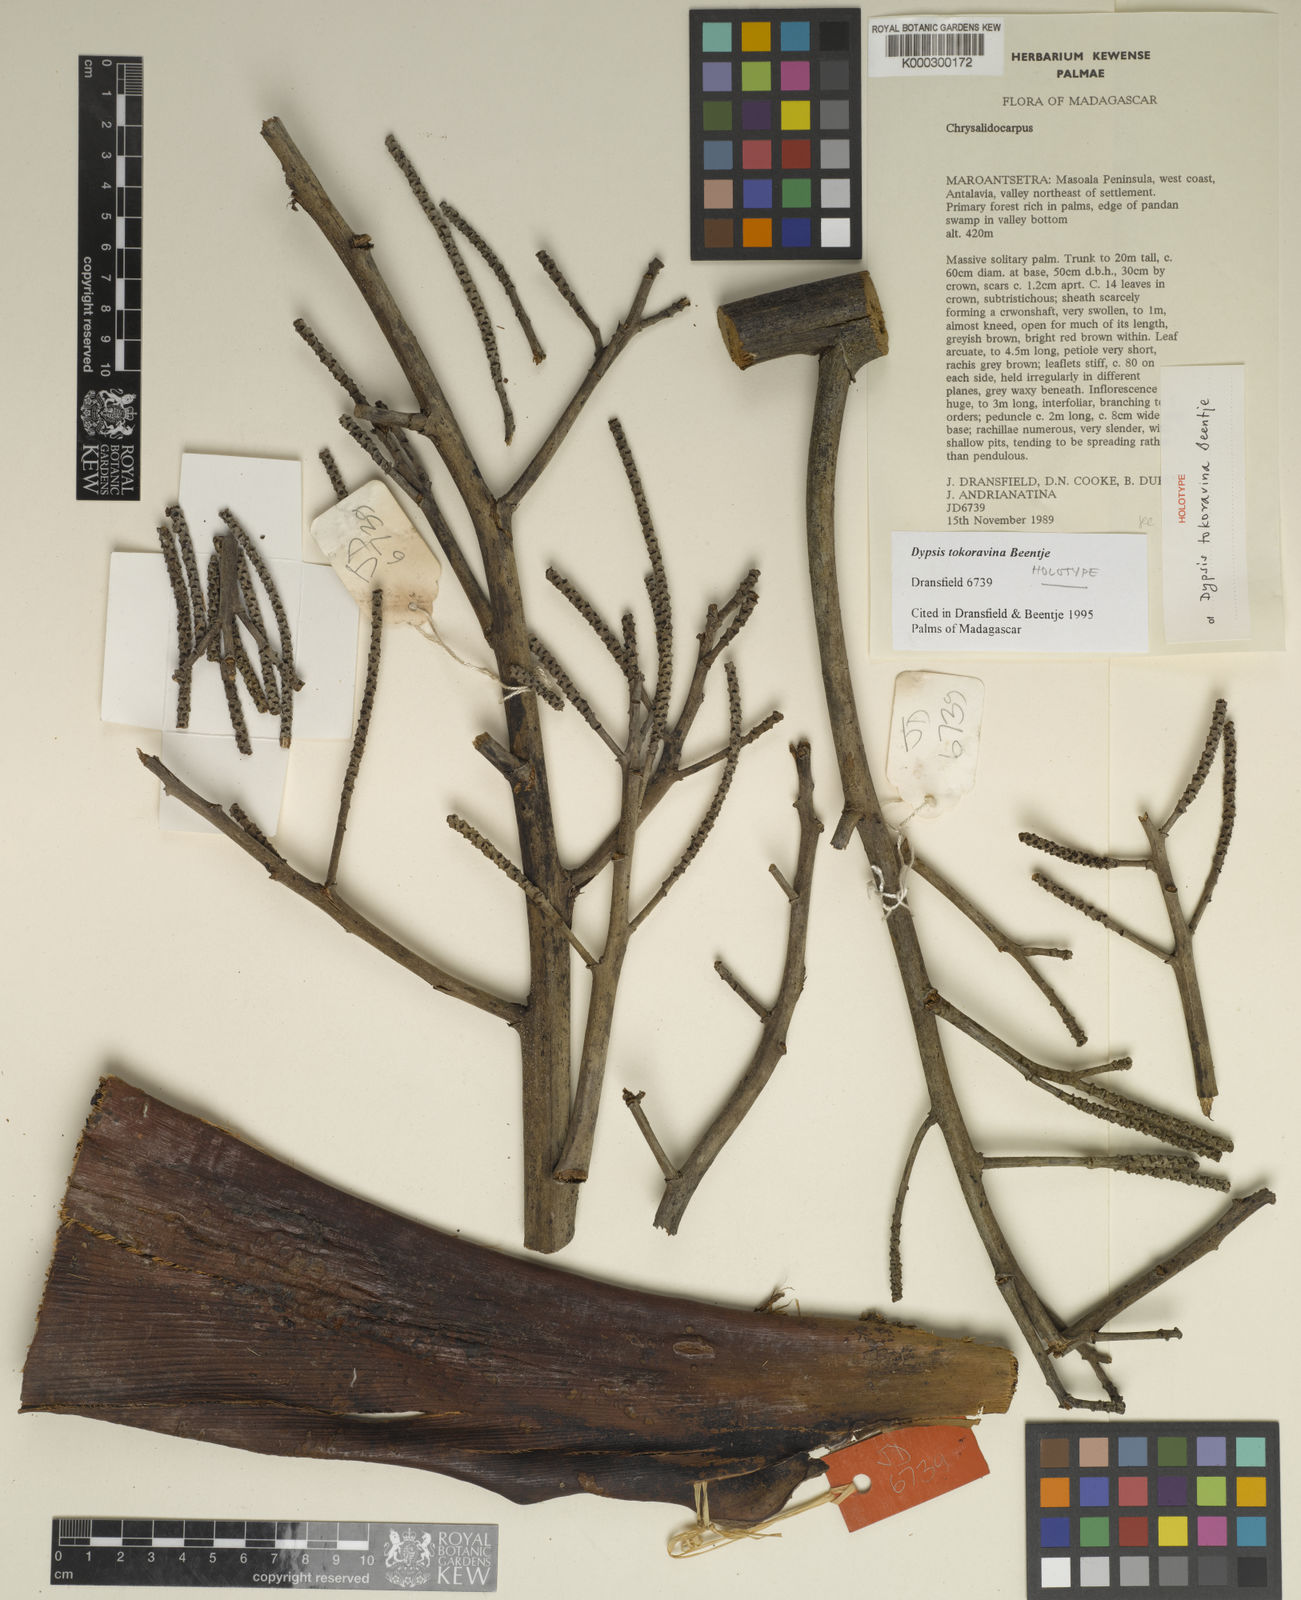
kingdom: Plantae
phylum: Tracheophyta
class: Liliopsida
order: Arecales
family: Arecaceae
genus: Dypsis
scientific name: Dypsis tokoravina
